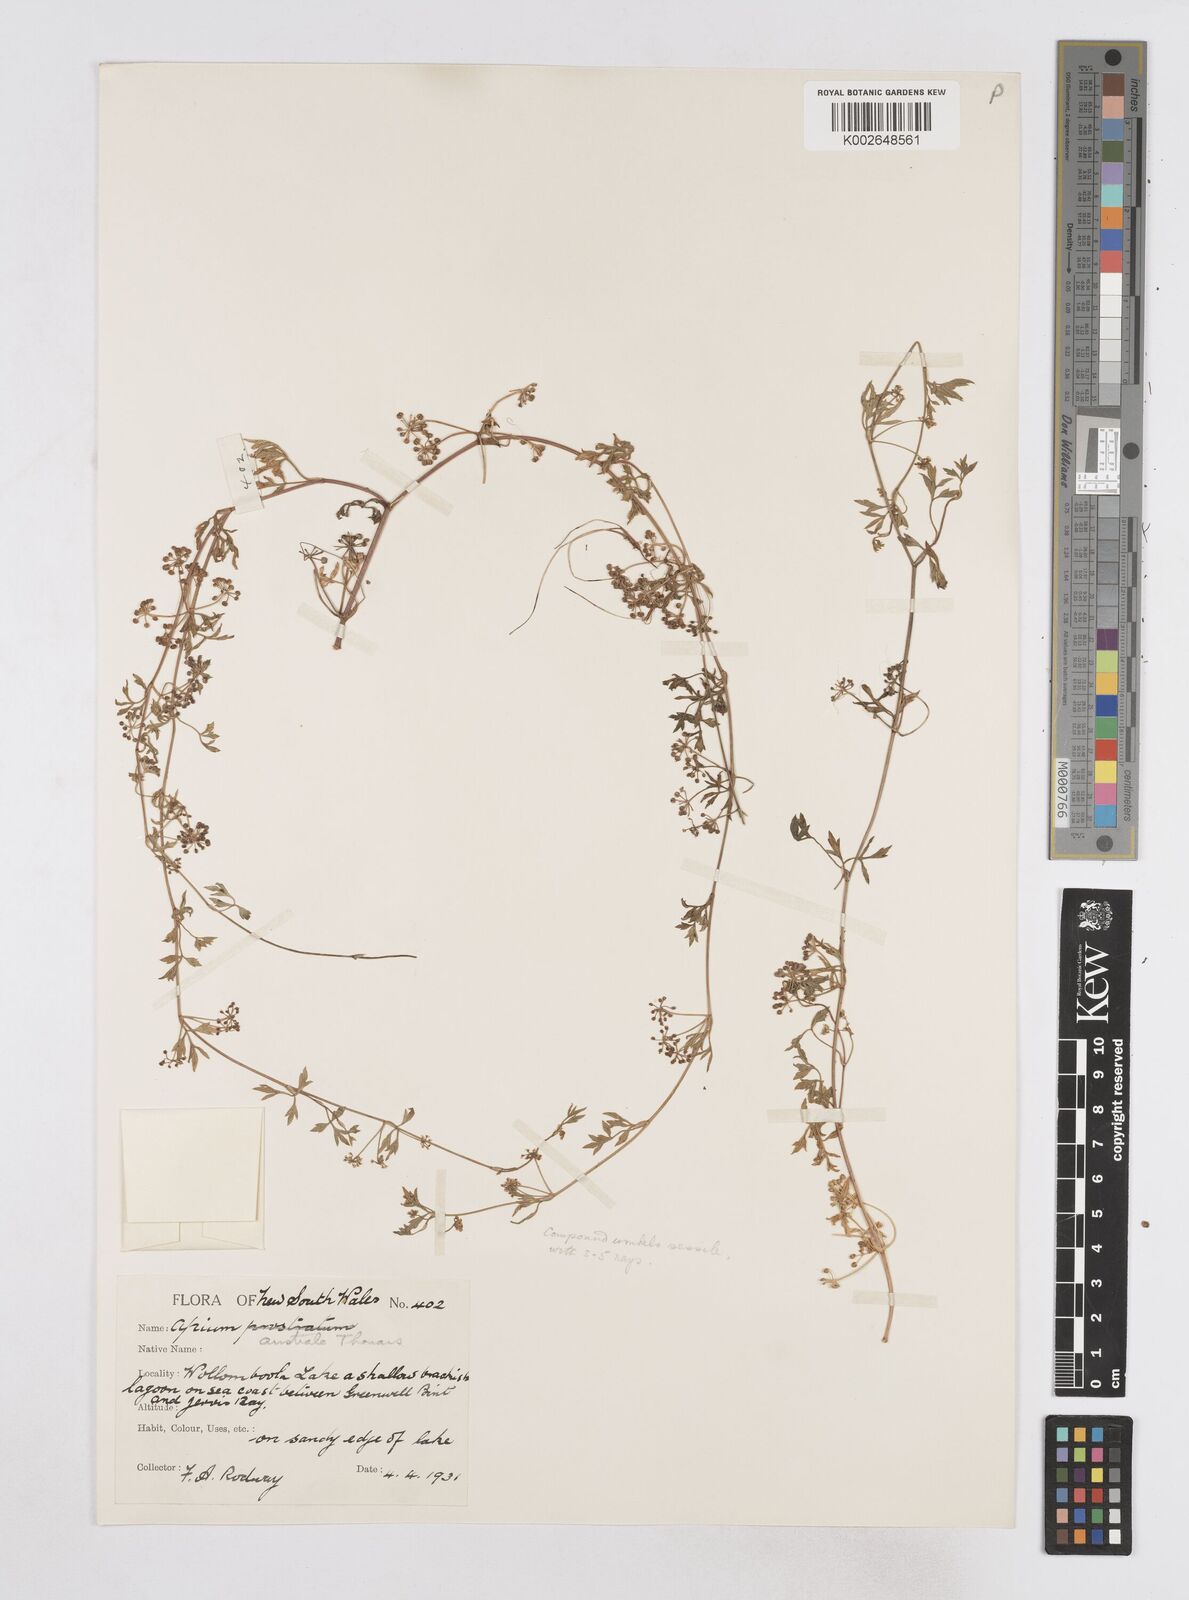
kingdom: Plantae
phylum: Tracheophyta
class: Magnoliopsida
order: Apiales
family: Apiaceae
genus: Apium
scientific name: Apium prostratum
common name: Prostrate marshwort
